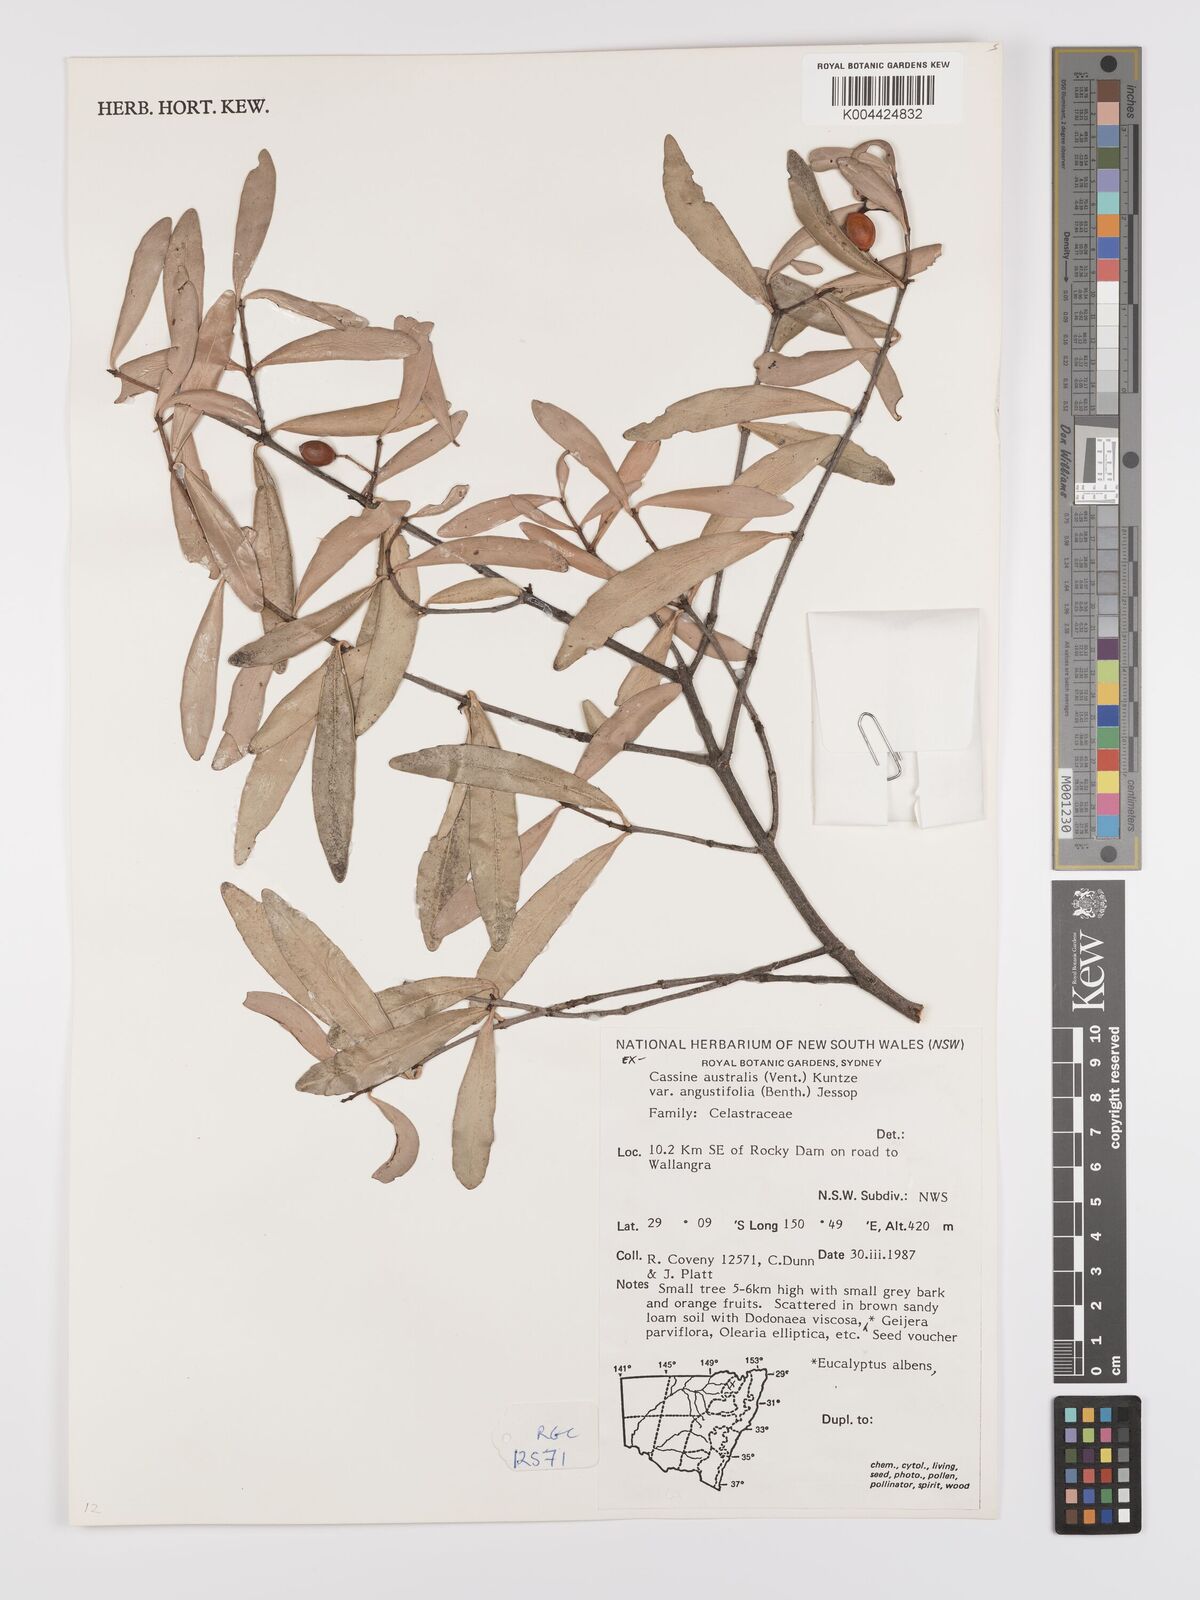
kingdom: Plantae
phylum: Tracheophyta
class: Magnoliopsida
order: Celastrales
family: Celastraceae
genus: Elaeodendron
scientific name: Elaeodendron australe
